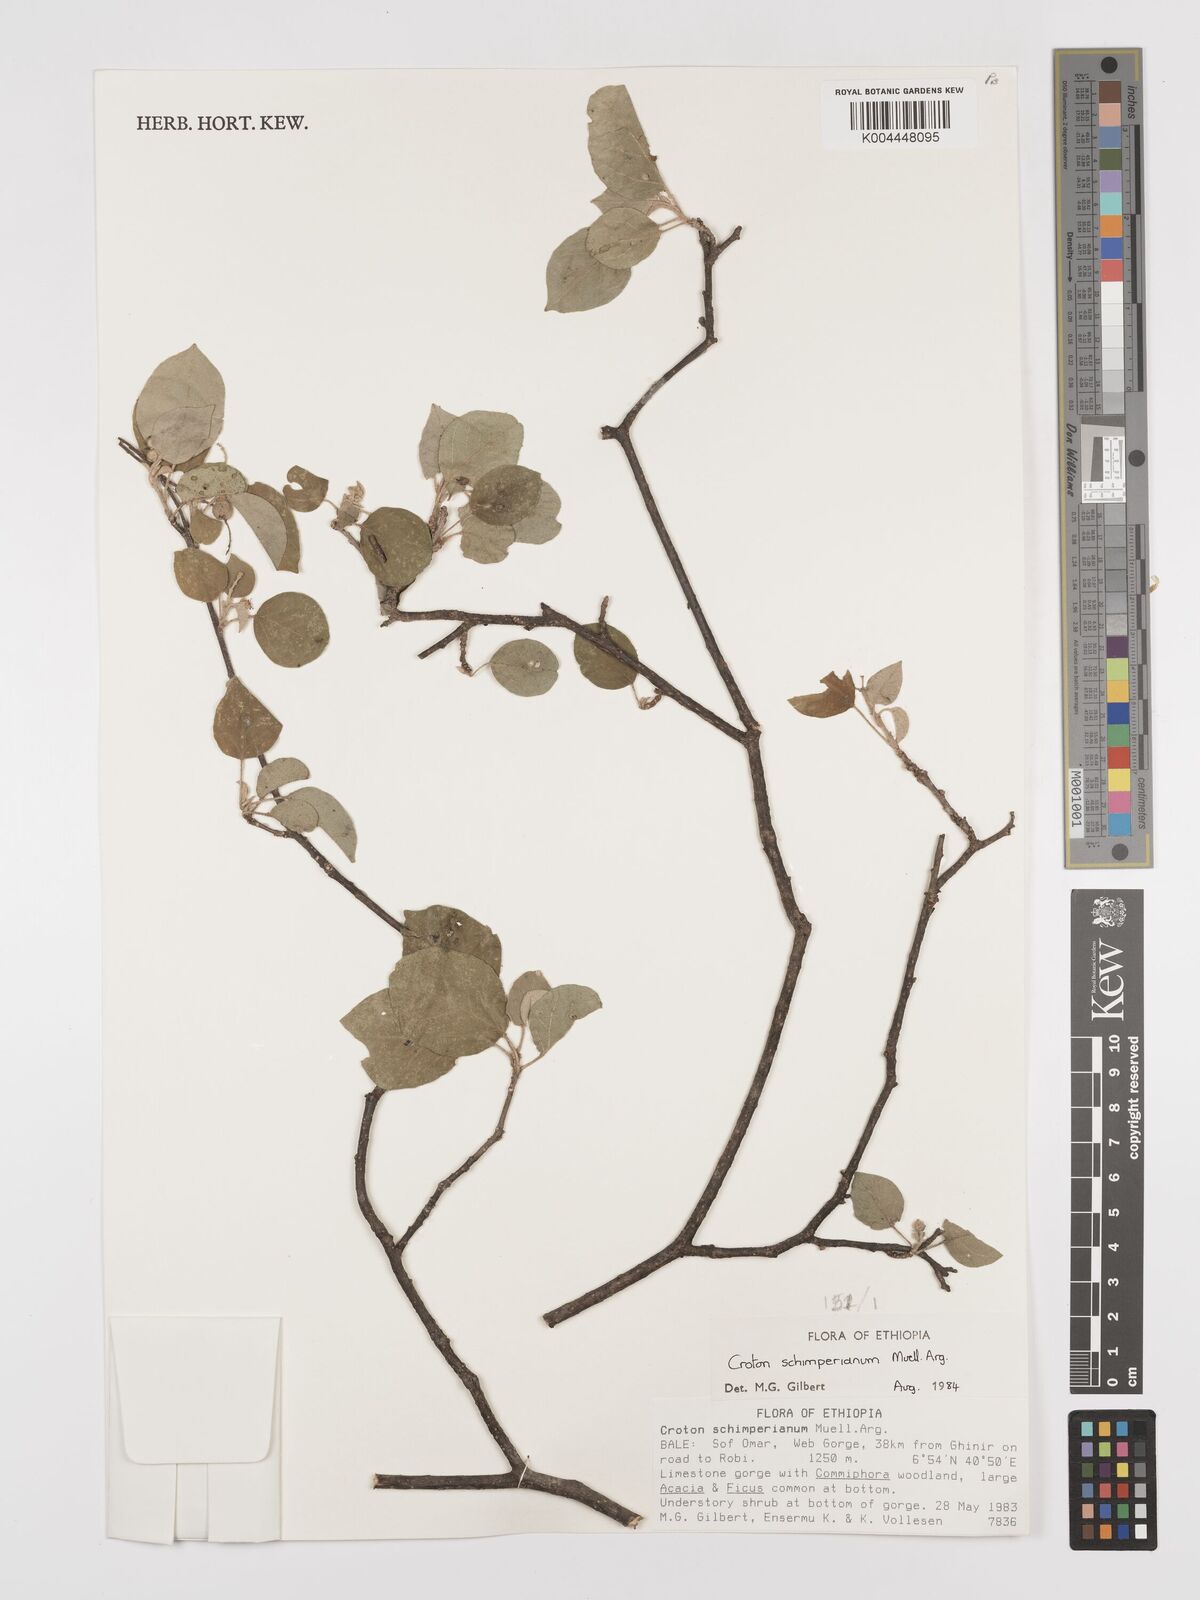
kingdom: Plantae
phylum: Tracheophyta
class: Magnoliopsida
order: Malpighiales
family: Euphorbiaceae
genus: Croton
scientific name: Croton schimperianus
